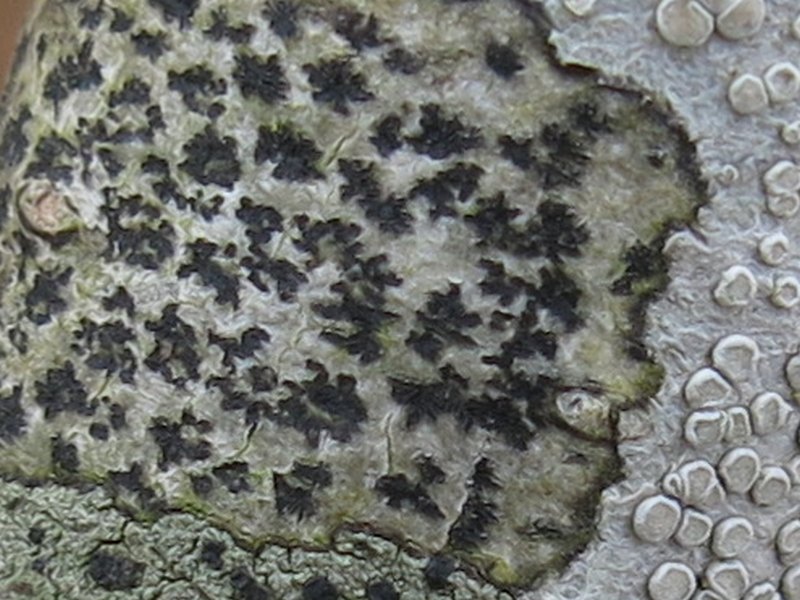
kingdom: Fungi
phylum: Ascomycota
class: Arthoniomycetes
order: Arthoniales
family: Arthoniaceae
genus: Arthonia
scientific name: Arthonia radiata
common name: stjerne-pletlav
